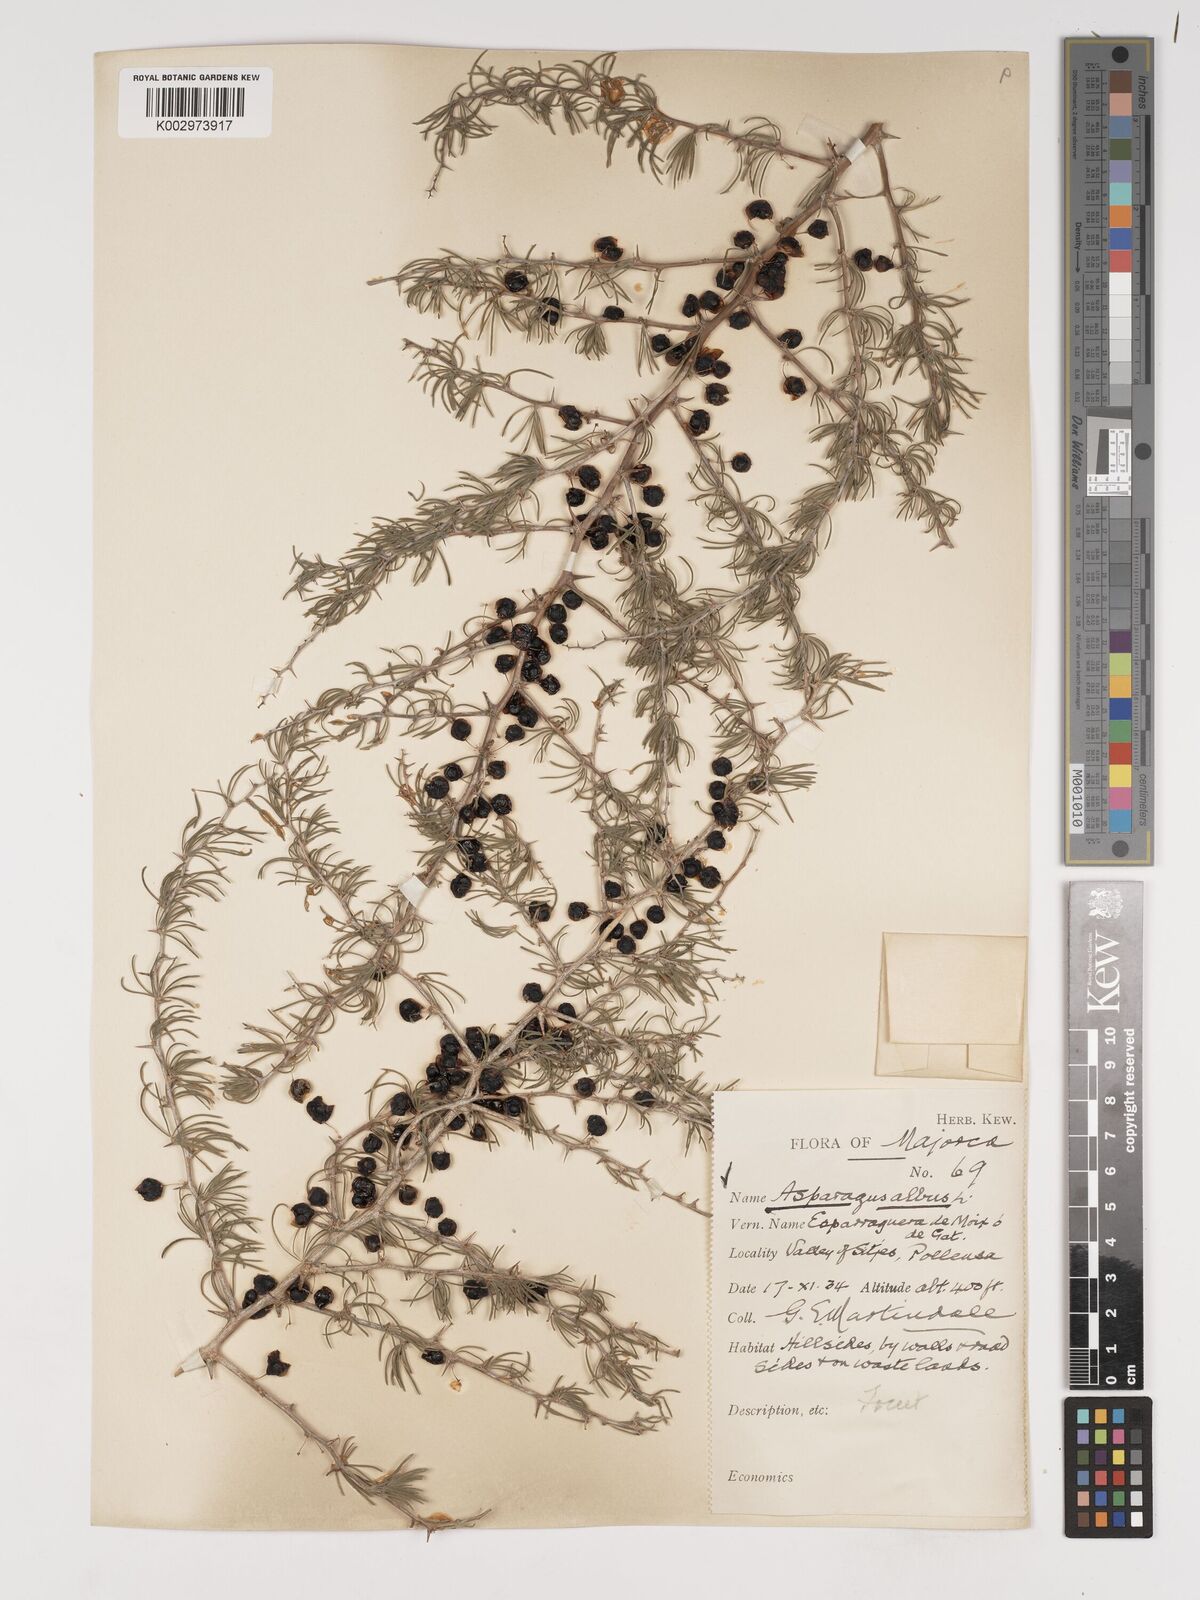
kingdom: Plantae
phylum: Tracheophyta
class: Liliopsida
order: Asparagales
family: Asparagaceae
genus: Asparagus
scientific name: Asparagus albus
